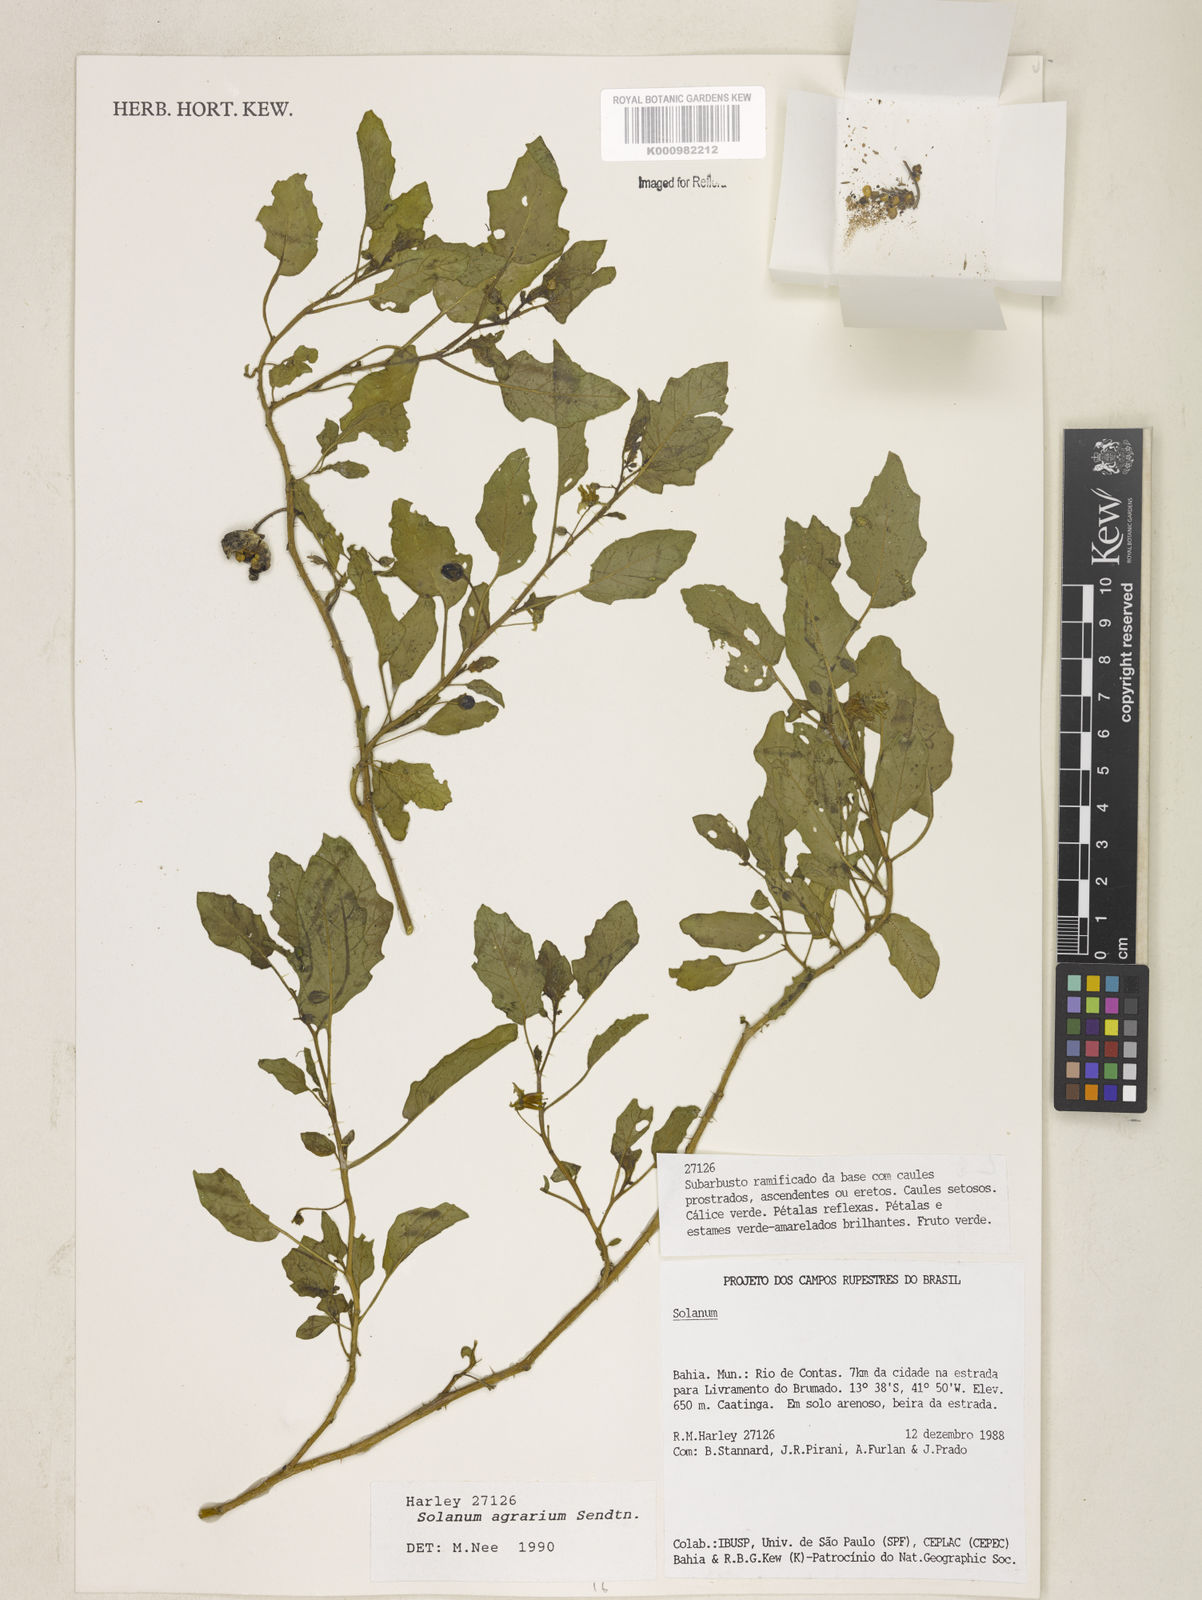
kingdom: Plantae
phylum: Tracheophyta
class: Magnoliopsida
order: Solanales
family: Solanaceae
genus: Solanum
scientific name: Solanum agrarium
